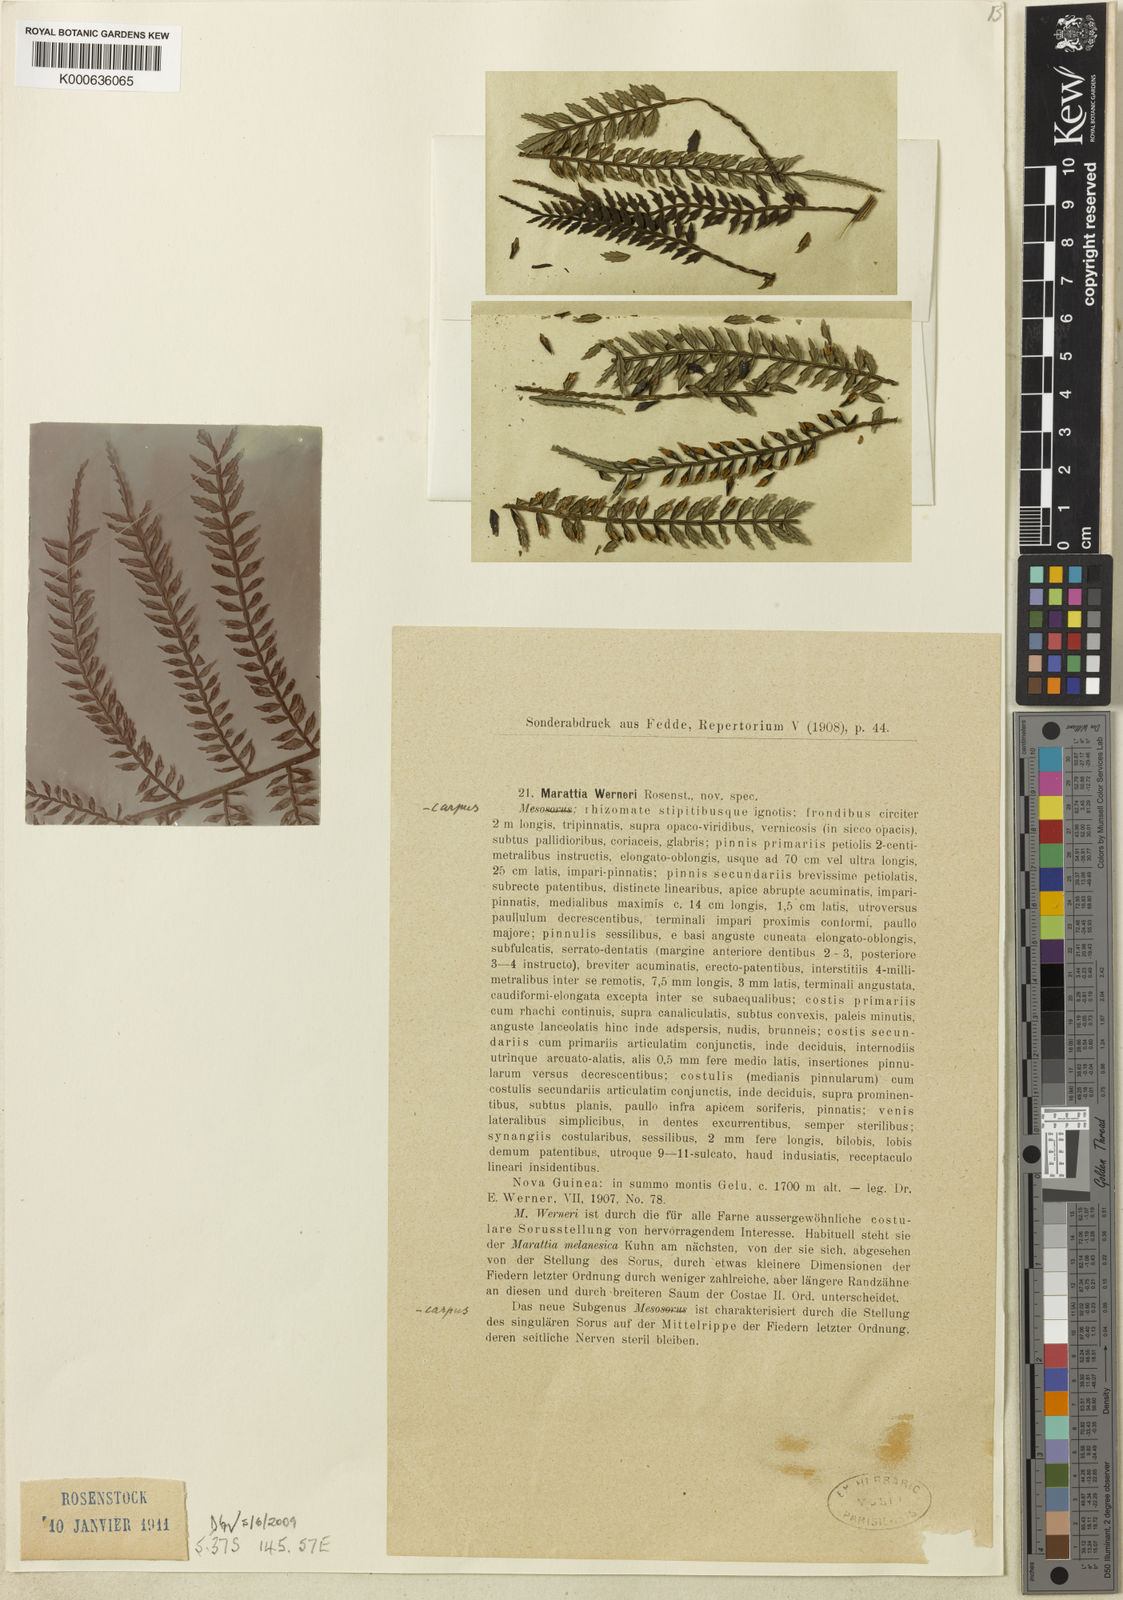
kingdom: Plantae
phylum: Tracheophyta
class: Polypodiopsida
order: Marattiales
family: Marattiaceae
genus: Ptisana
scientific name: Ptisana melanesica
